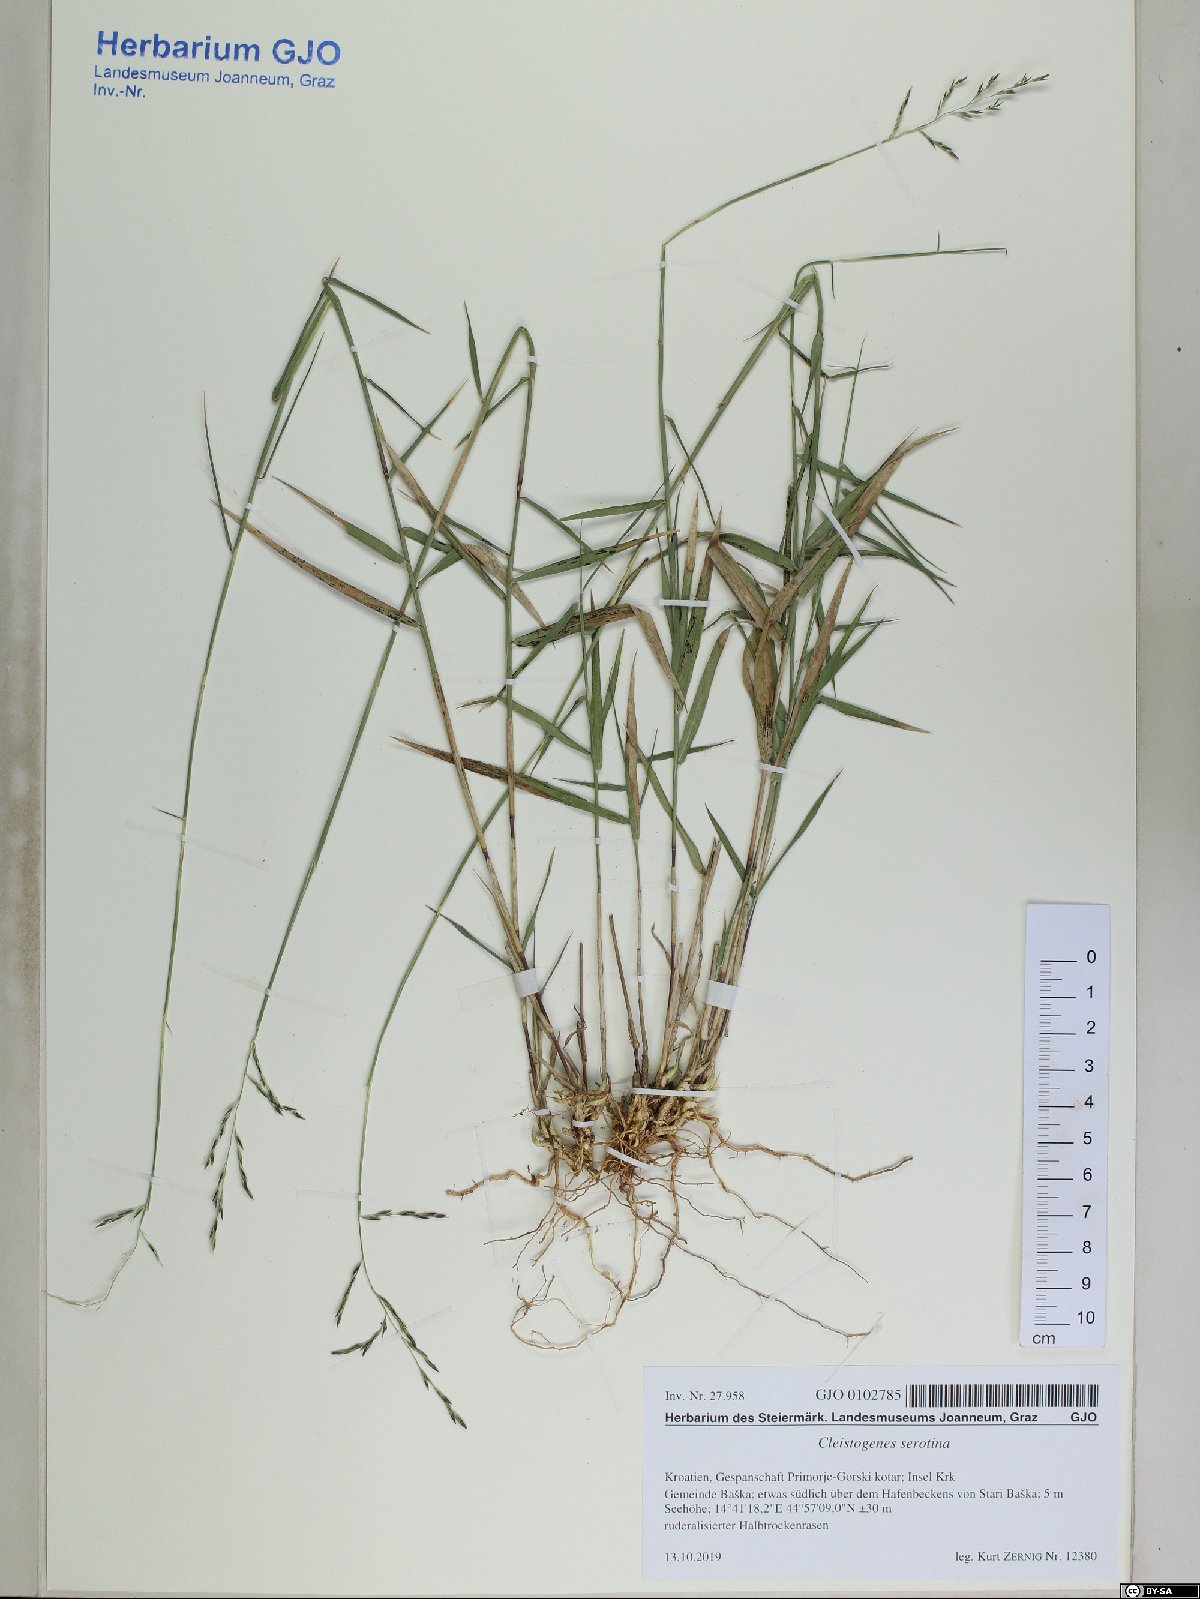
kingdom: Plantae
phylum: Tracheophyta
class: Liliopsida
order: Poales
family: Poaceae
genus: Cleistogenes
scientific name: Cleistogenes serotina
